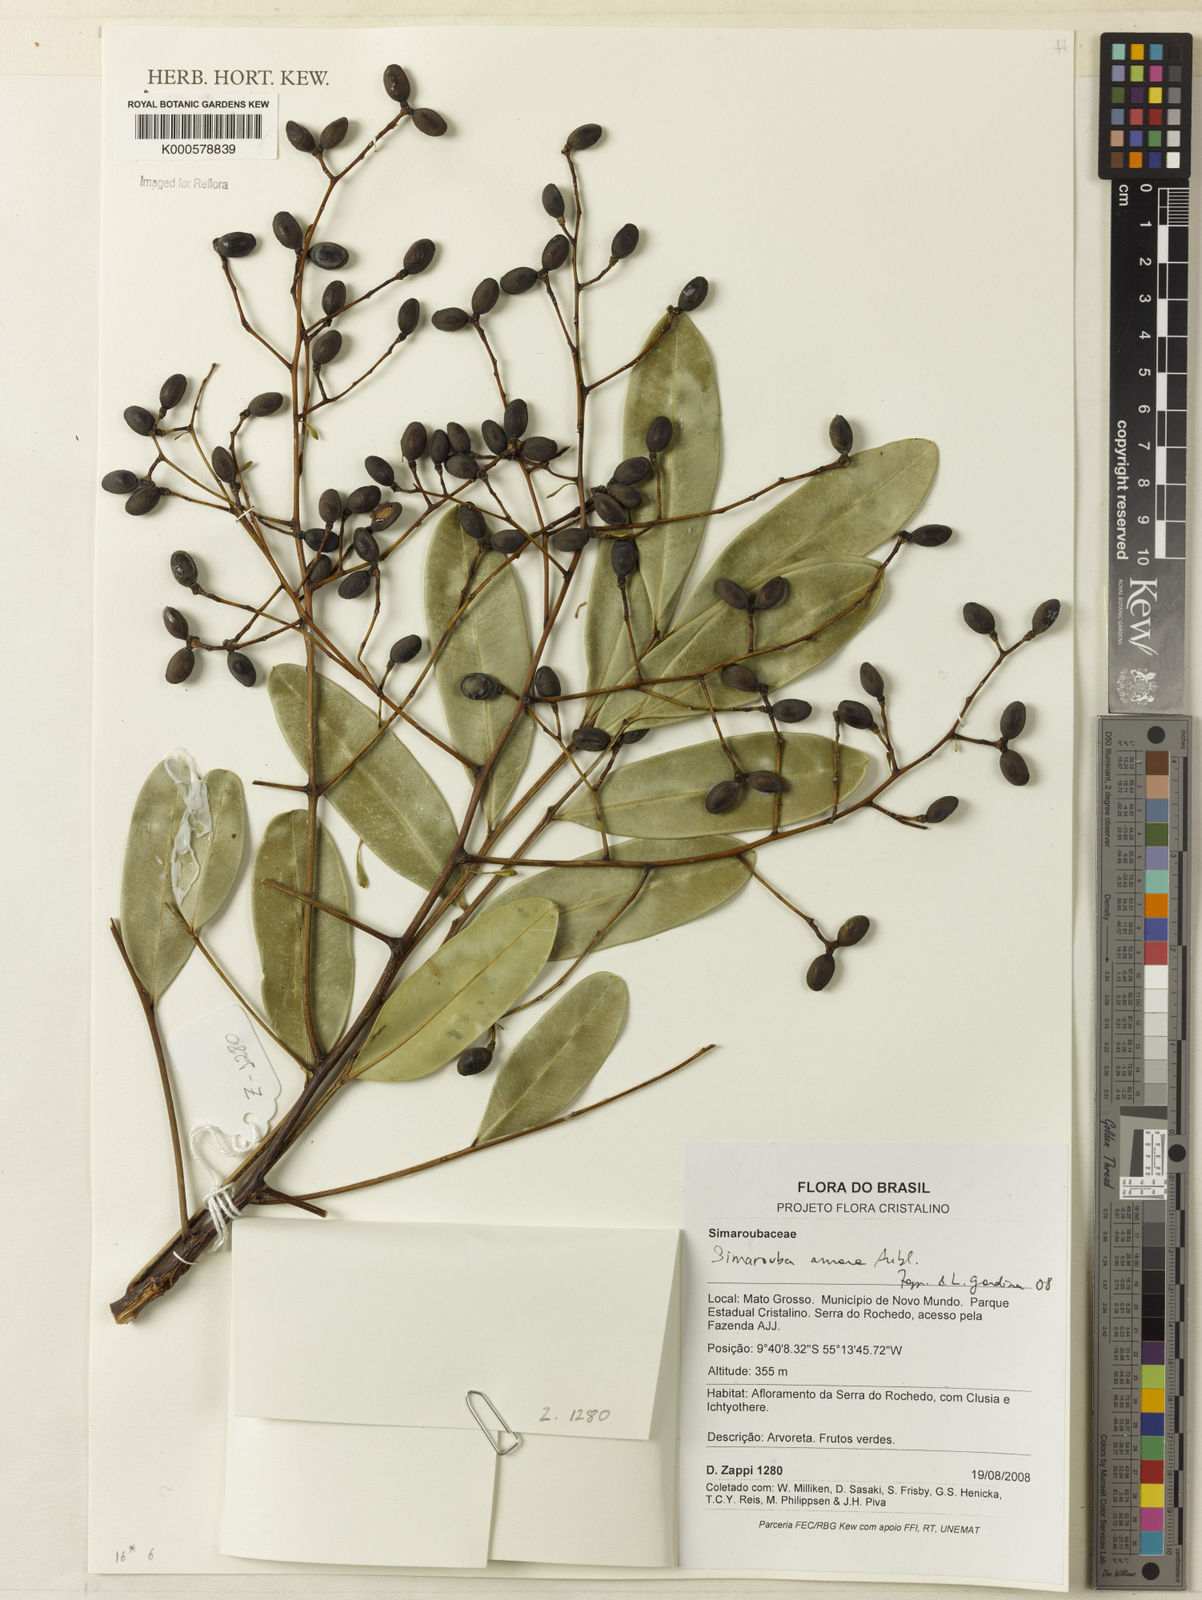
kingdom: Plantae
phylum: Tracheophyta
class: Magnoliopsida
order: Sapindales
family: Simaroubaceae
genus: Simarouba
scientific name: Simarouba amara
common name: Bitterwood
